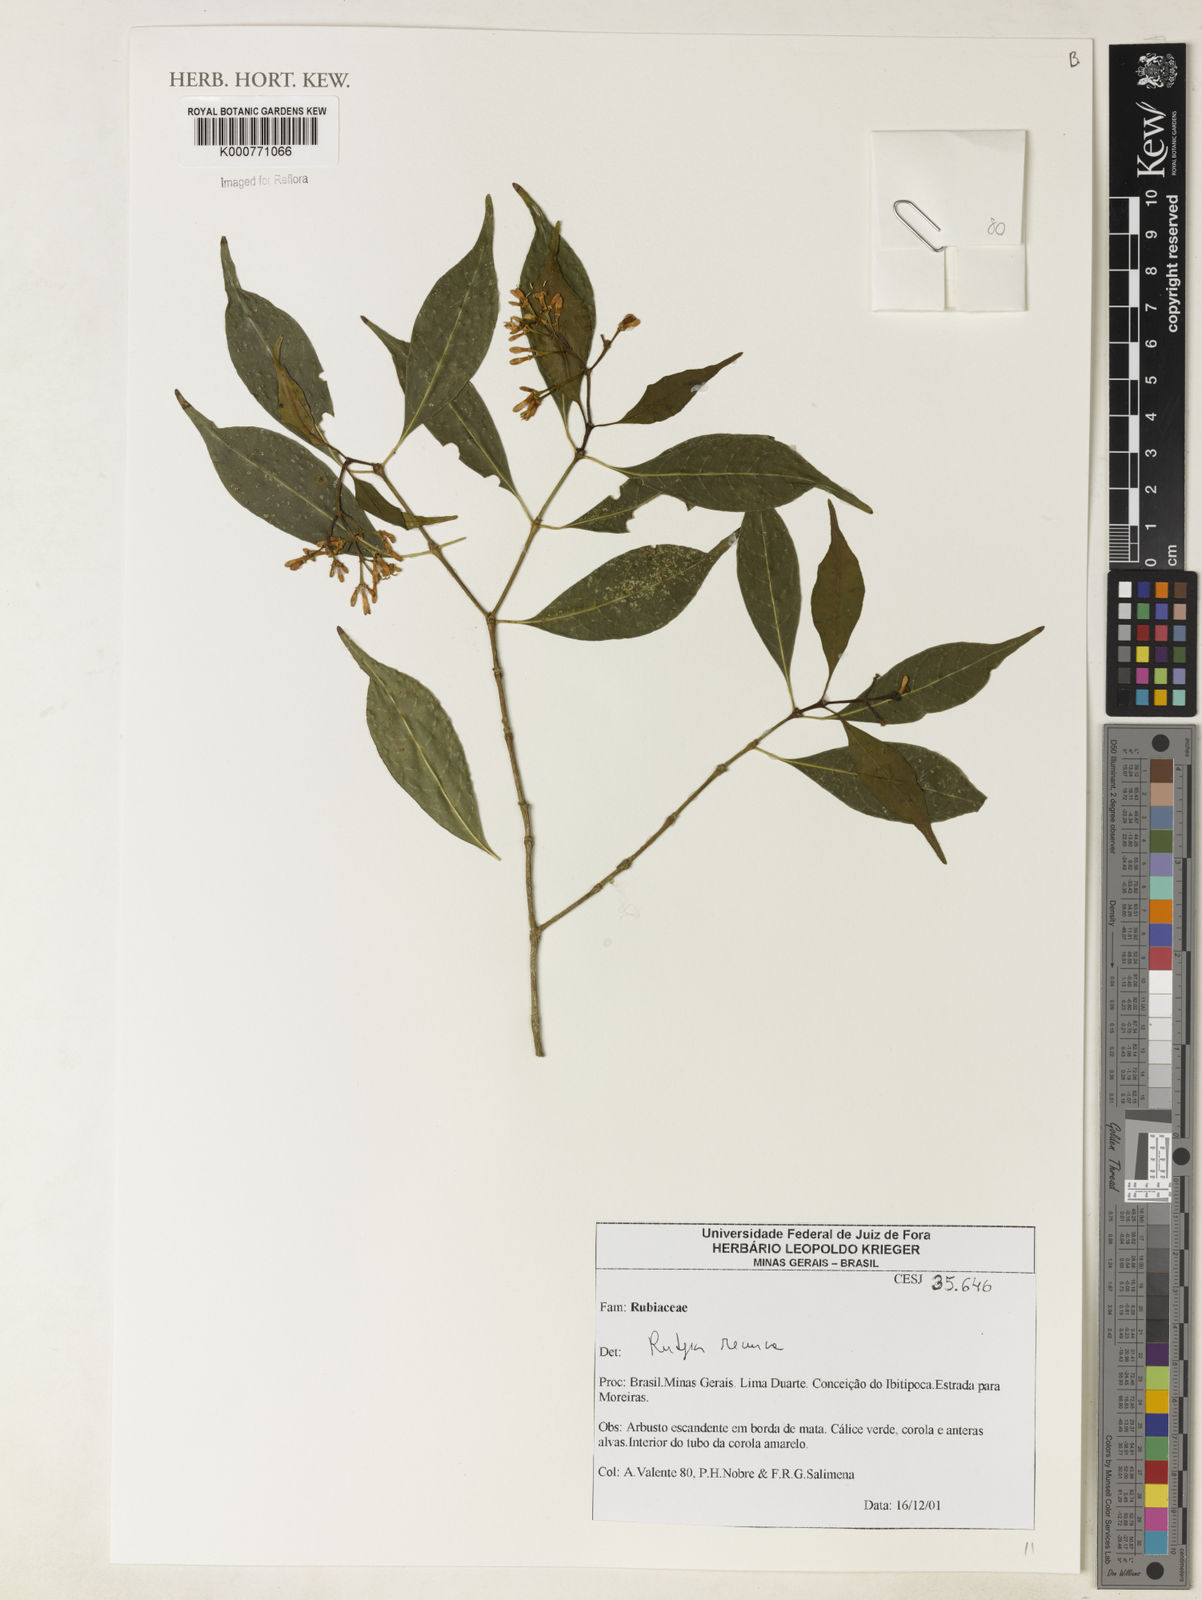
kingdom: Plantae
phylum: Tracheophyta
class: Magnoliopsida
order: Gentianales
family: Rubiaceae
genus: Rudgea
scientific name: Rudgea
